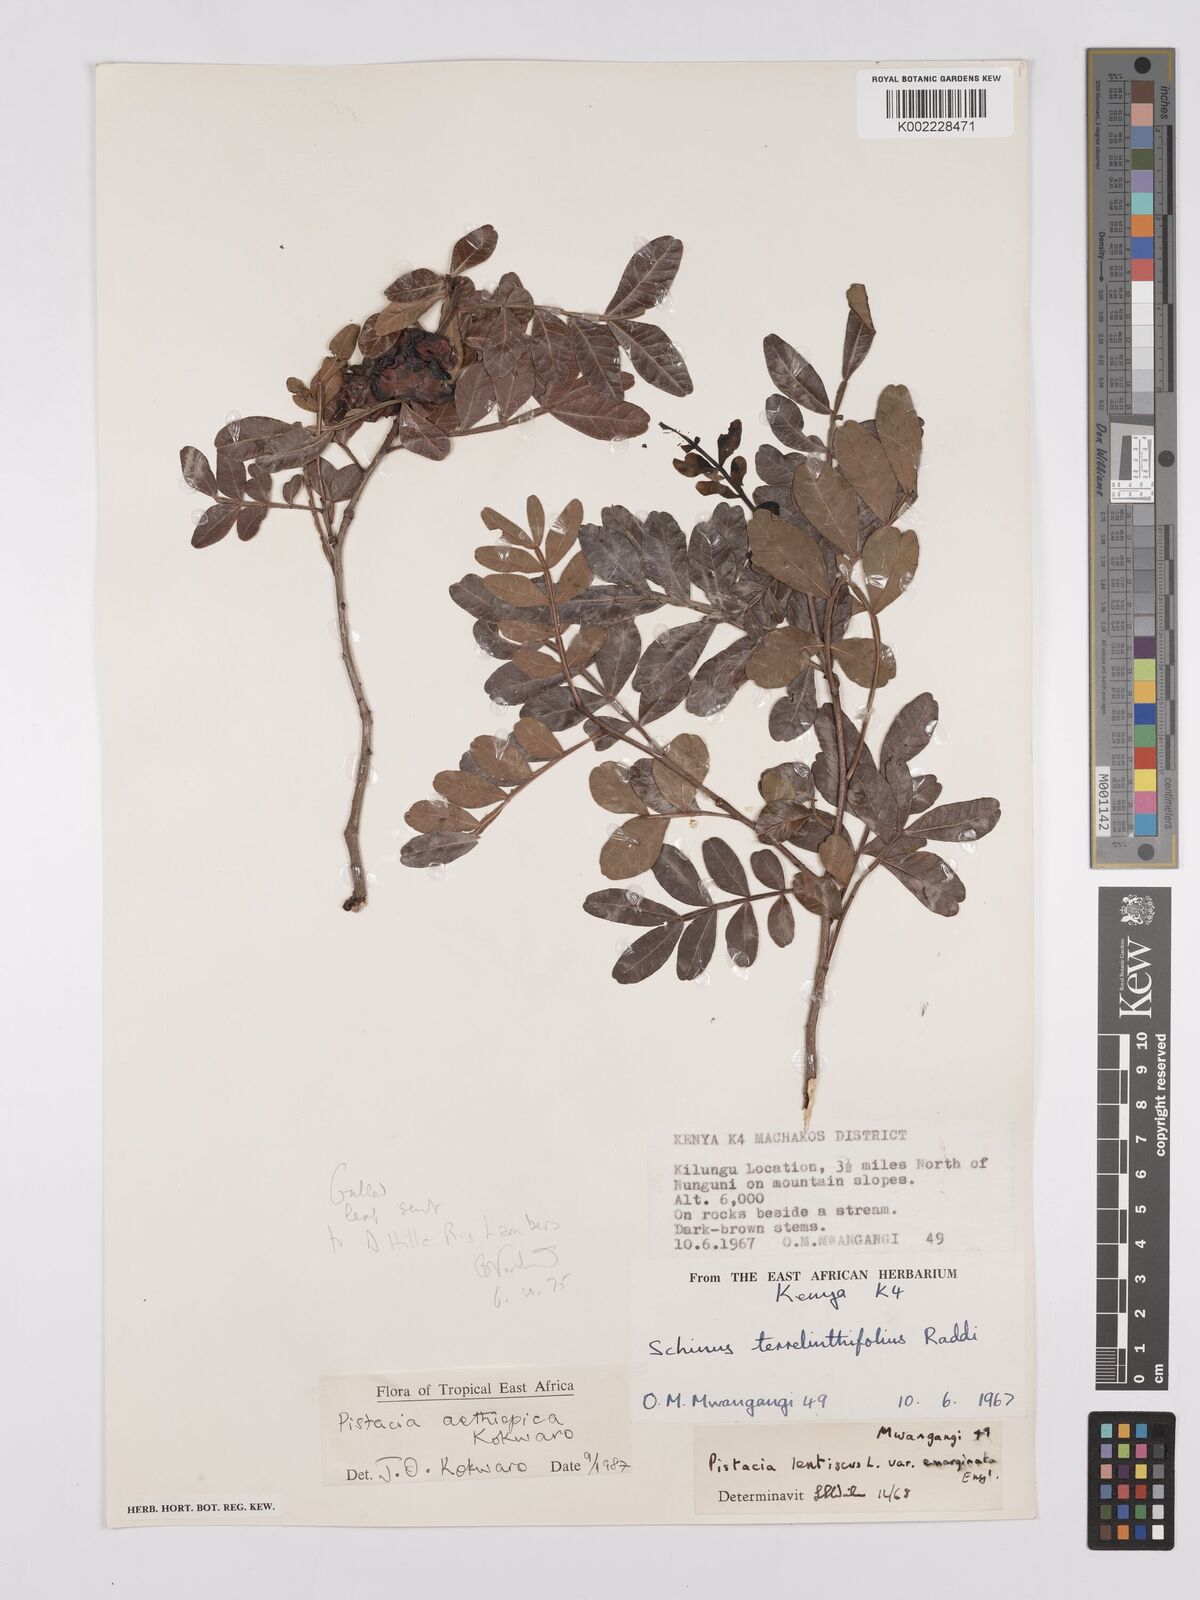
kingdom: Plantae
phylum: Tracheophyta
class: Magnoliopsida
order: Sapindales
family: Anacardiaceae
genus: Pistacia
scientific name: Pistacia lentiscus
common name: Lentisk
